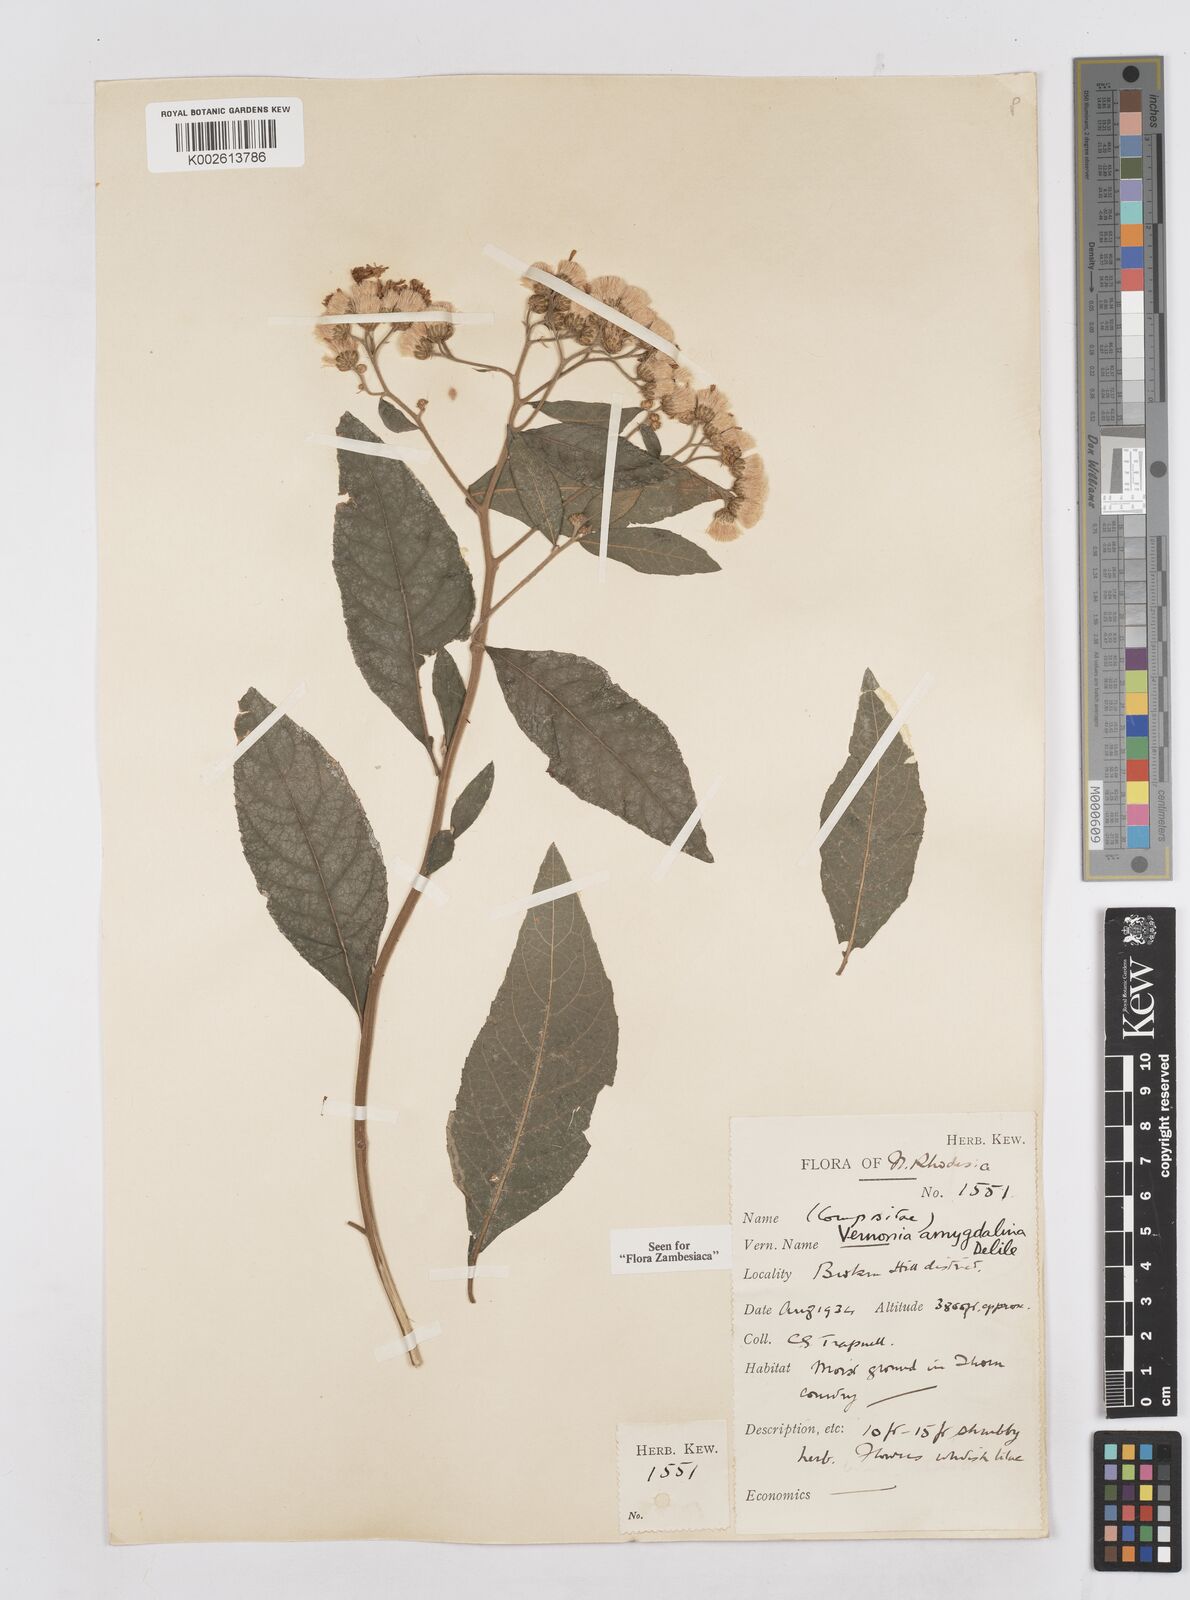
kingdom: Plantae
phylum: Tracheophyta
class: Magnoliopsida
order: Asterales
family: Asteraceae
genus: Gymnanthemum
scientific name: Gymnanthemum amygdalinum
